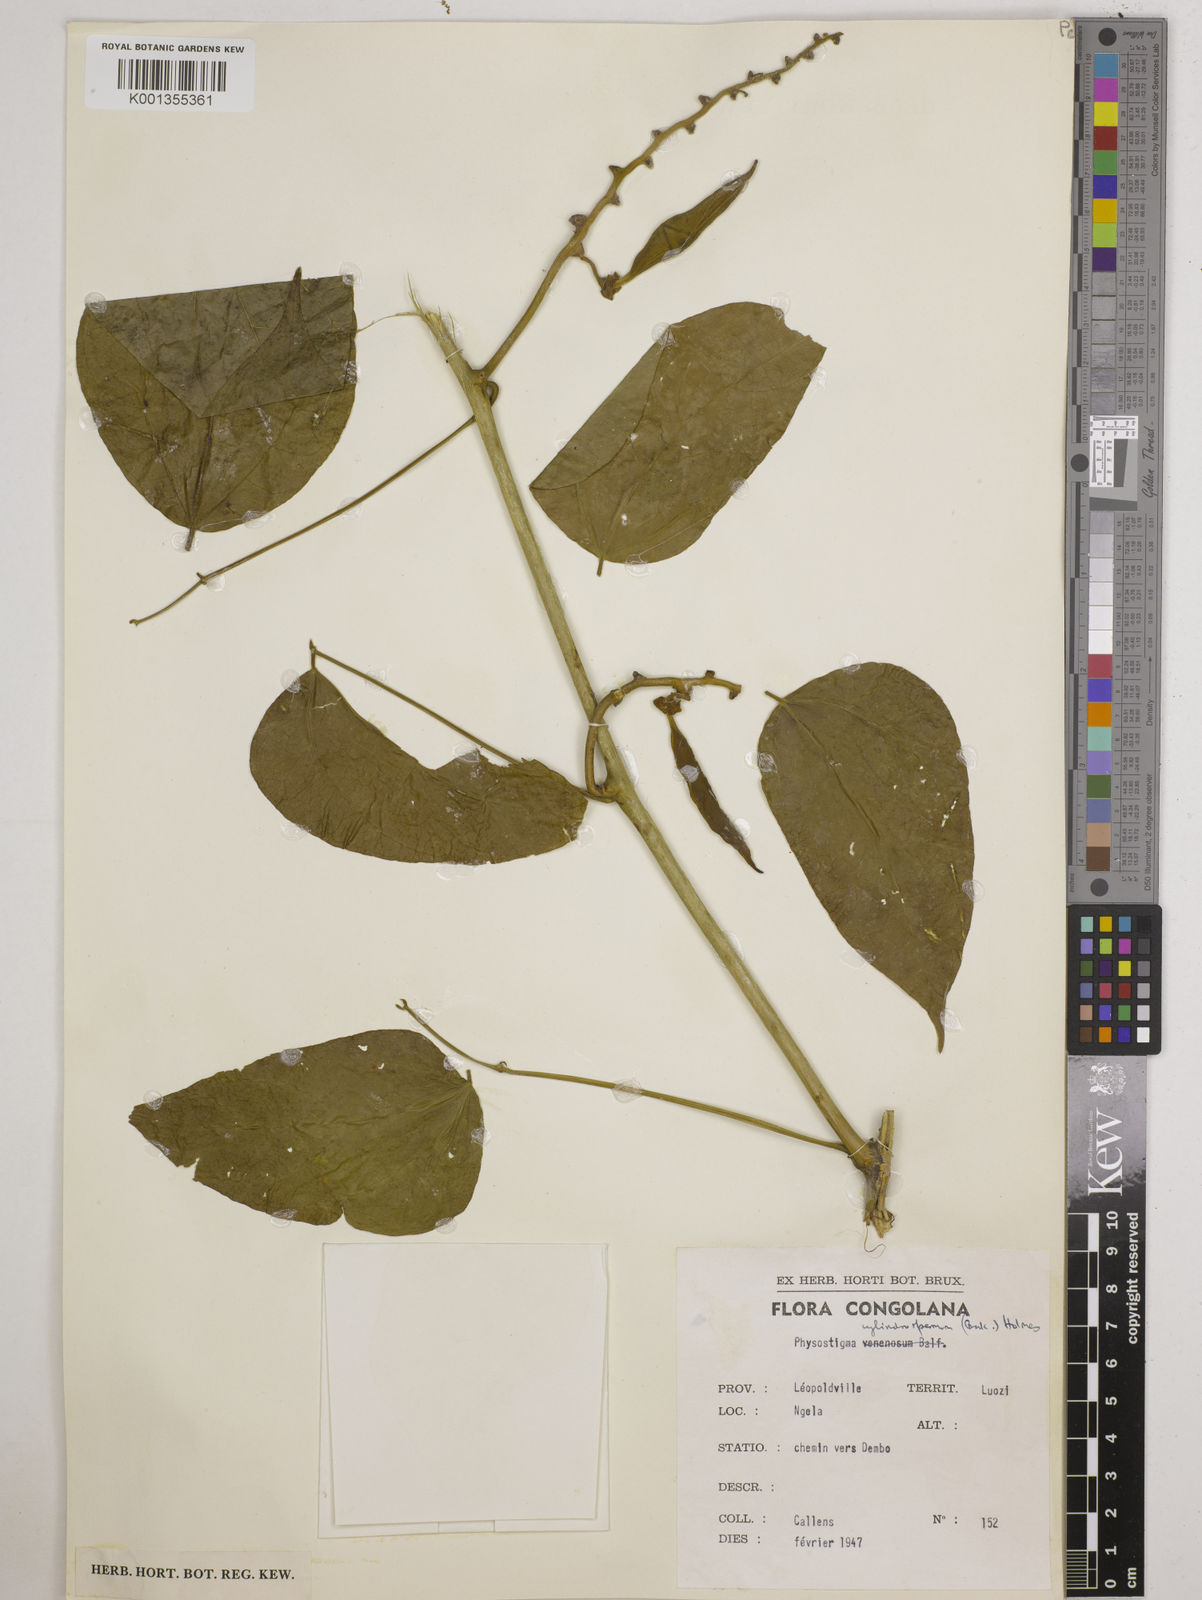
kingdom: Plantae
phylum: Tracheophyta
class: Magnoliopsida
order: Fabales
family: Fabaceae
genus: Physostigma
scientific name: Physostigma cylindrospermum
